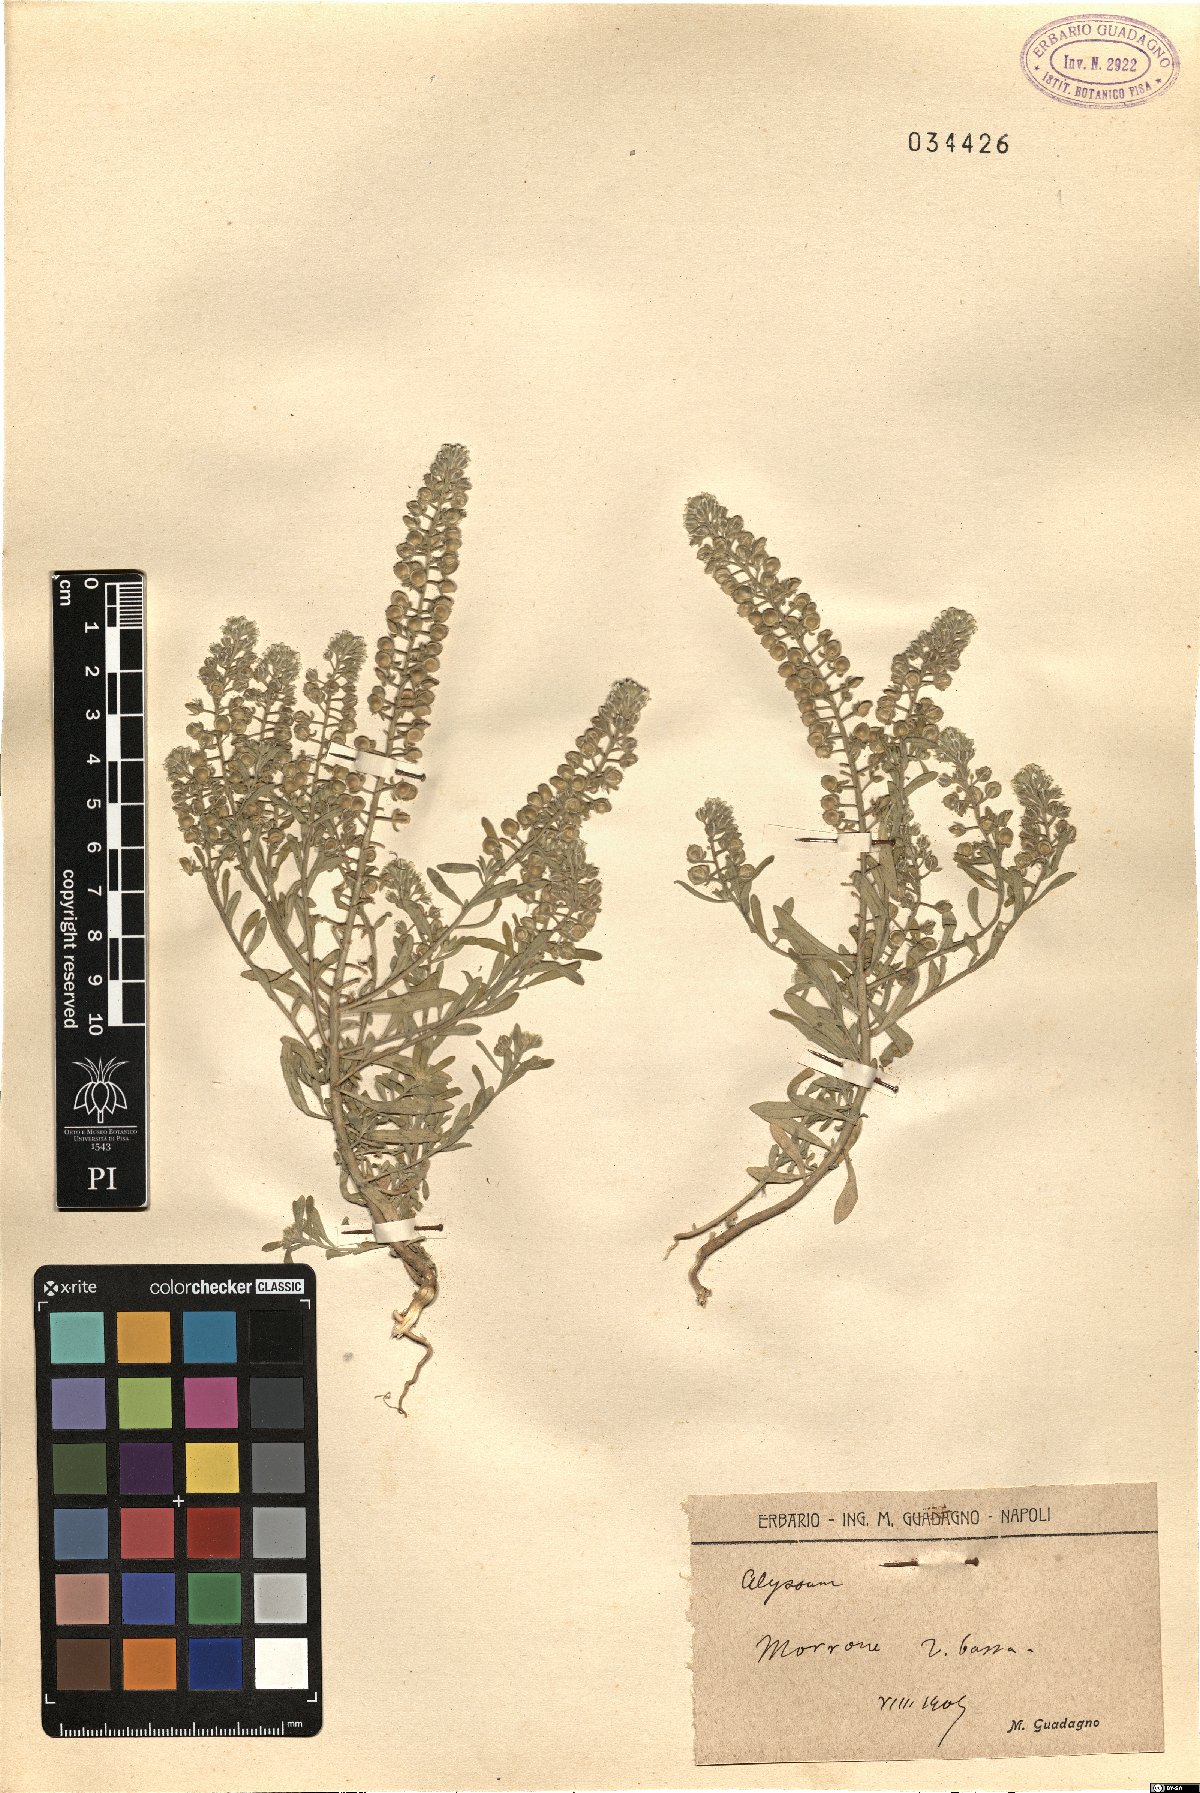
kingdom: Plantae
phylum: Tracheophyta
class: Magnoliopsida
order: Brassicales
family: Brassicaceae
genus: Alyssum
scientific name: Alyssum
